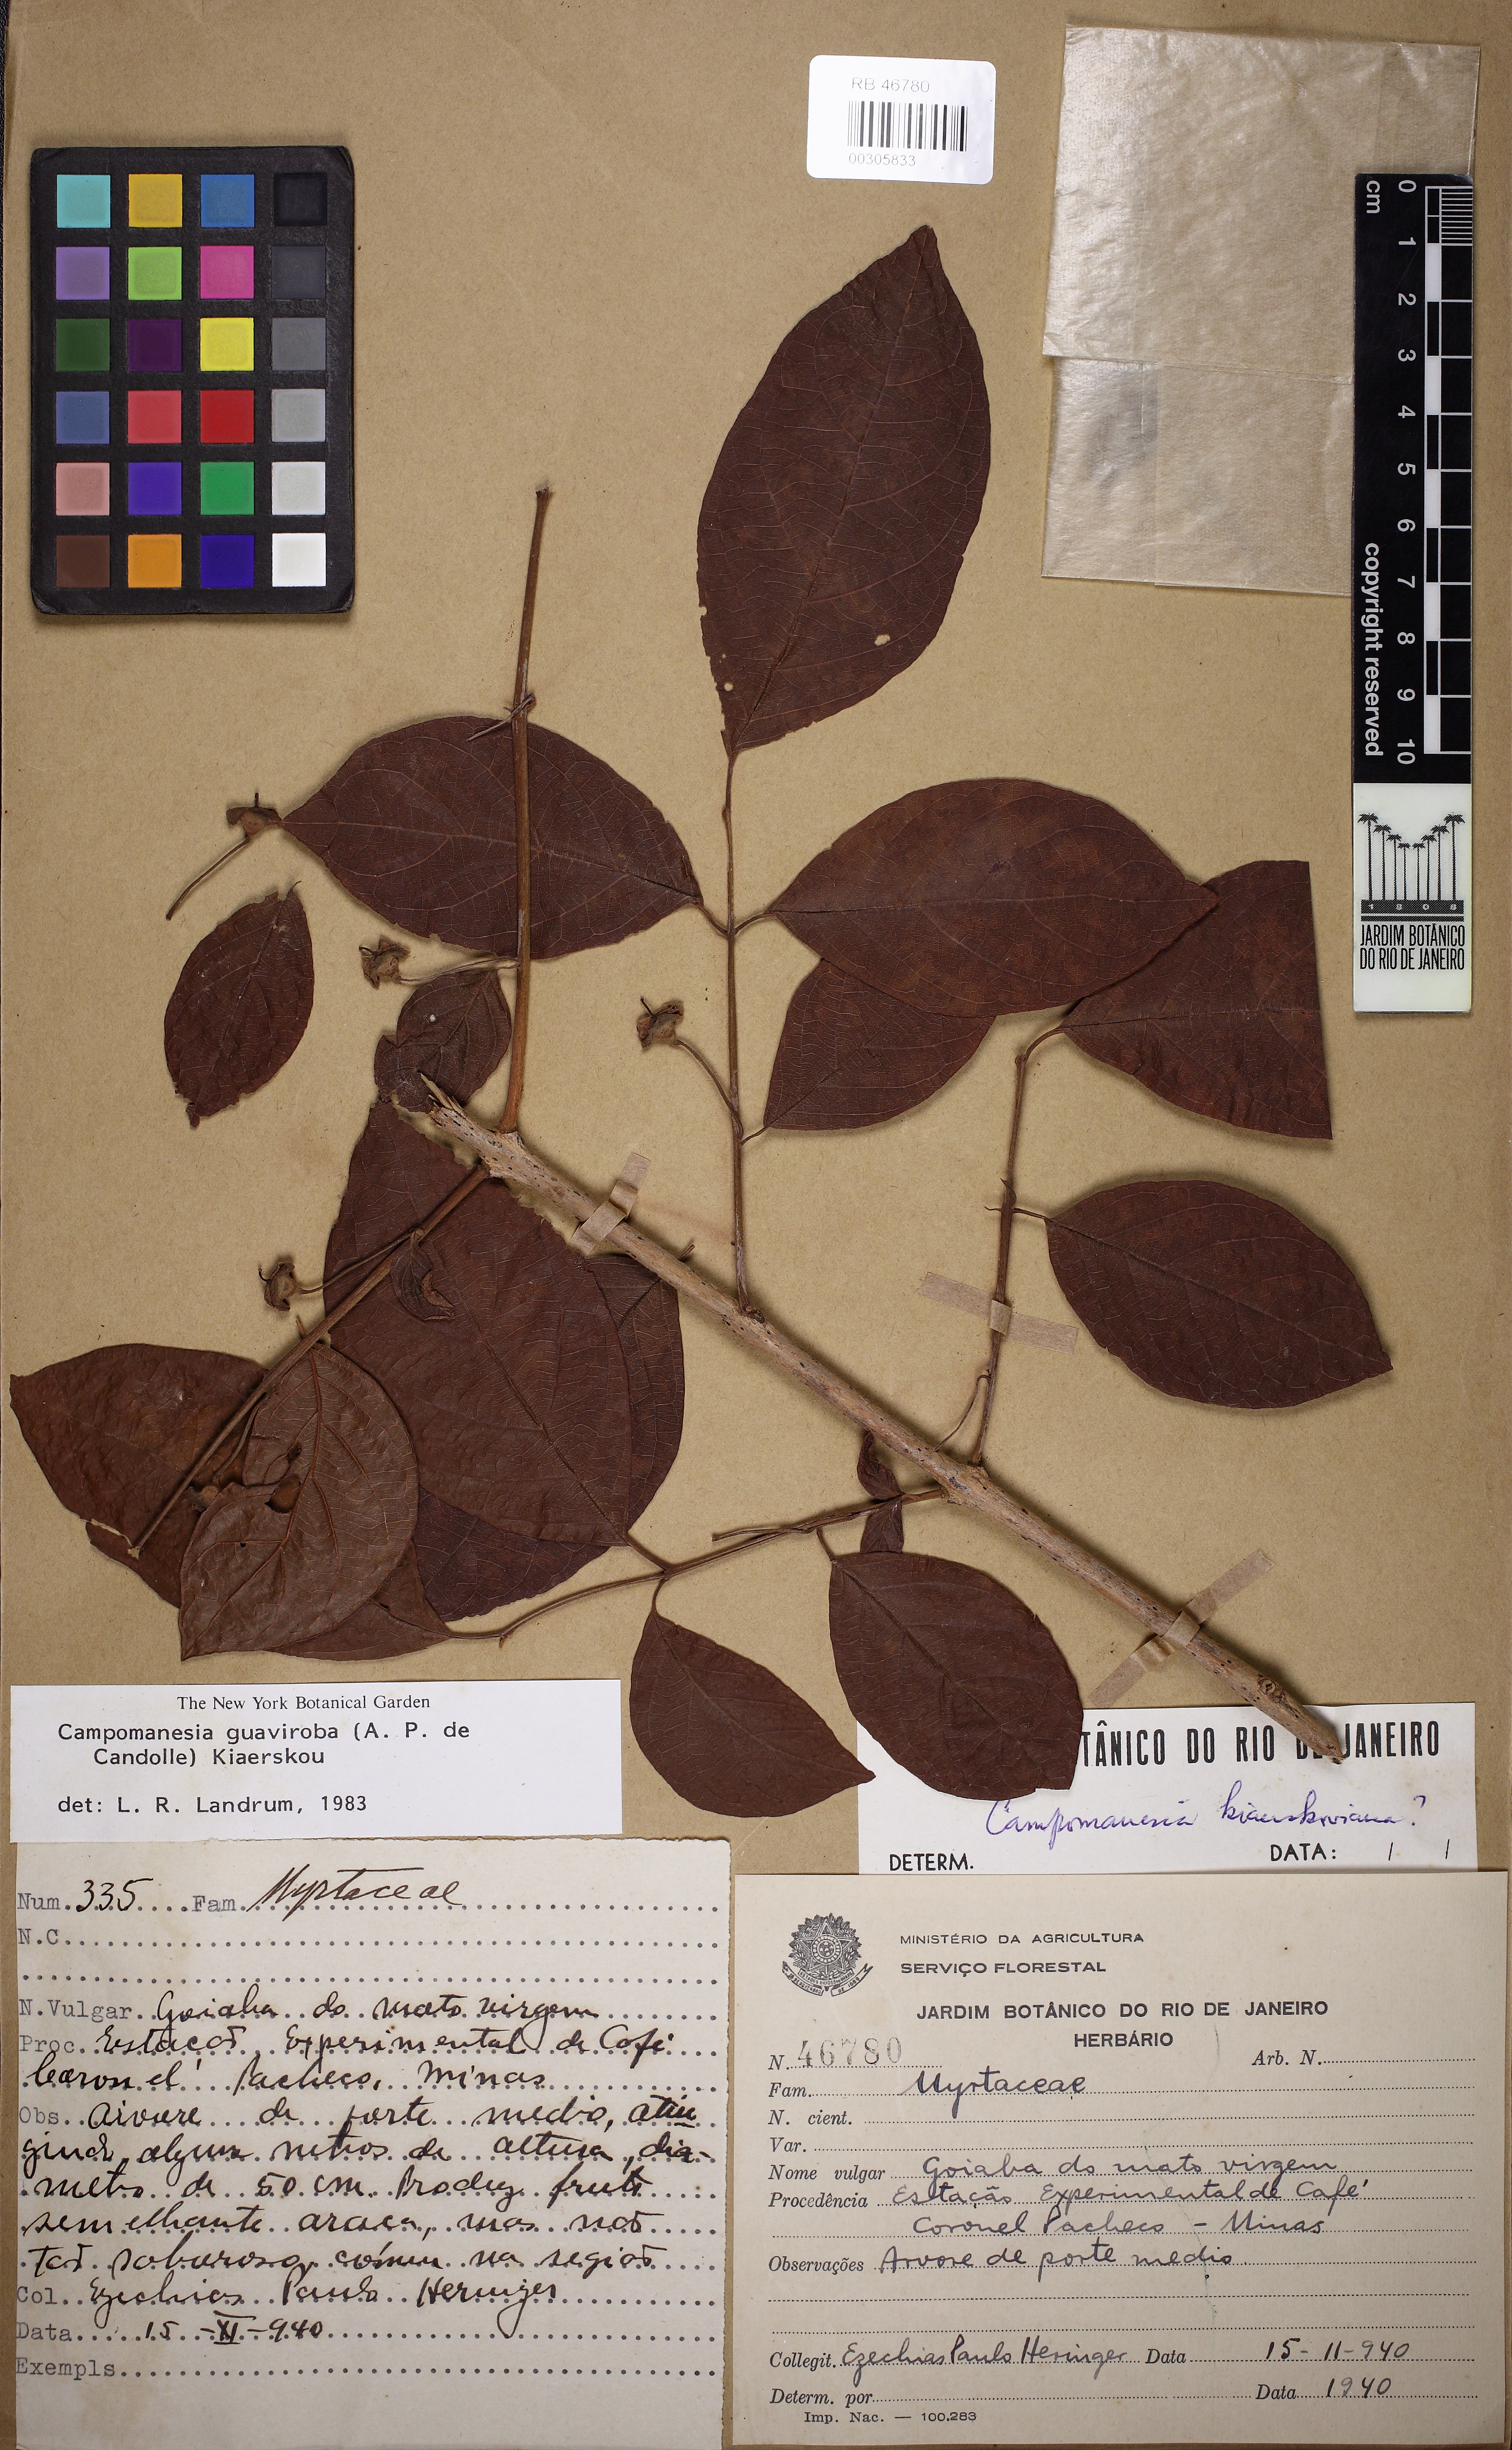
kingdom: Plantae
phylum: Tracheophyta
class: Magnoliopsida
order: Myrtales
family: Myrtaceae
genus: Campomanesia
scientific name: Campomanesia guaviroba
